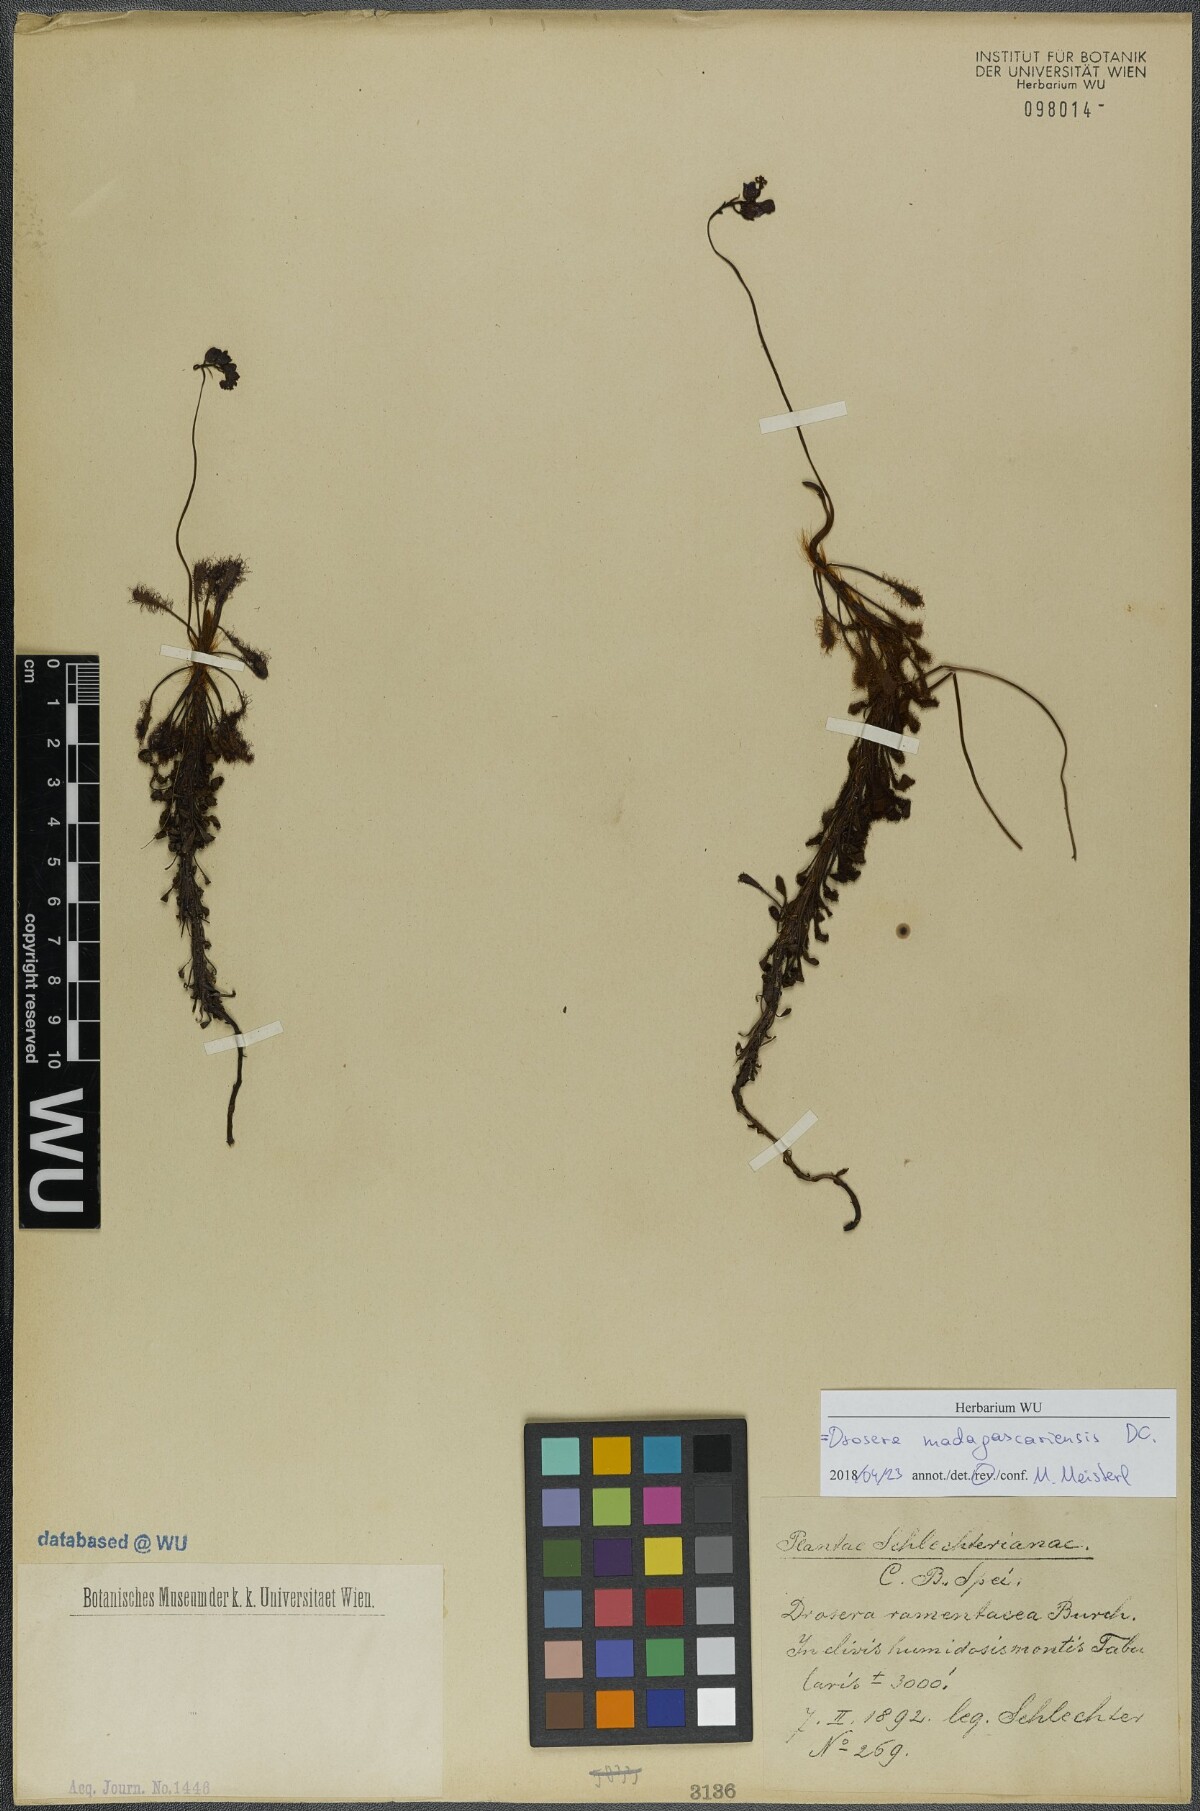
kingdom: Plantae
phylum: Tracheophyta
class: Magnoliopsida
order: Caryophyllales
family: Droseraceae
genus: Drosera
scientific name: Drosera madagascariensis
